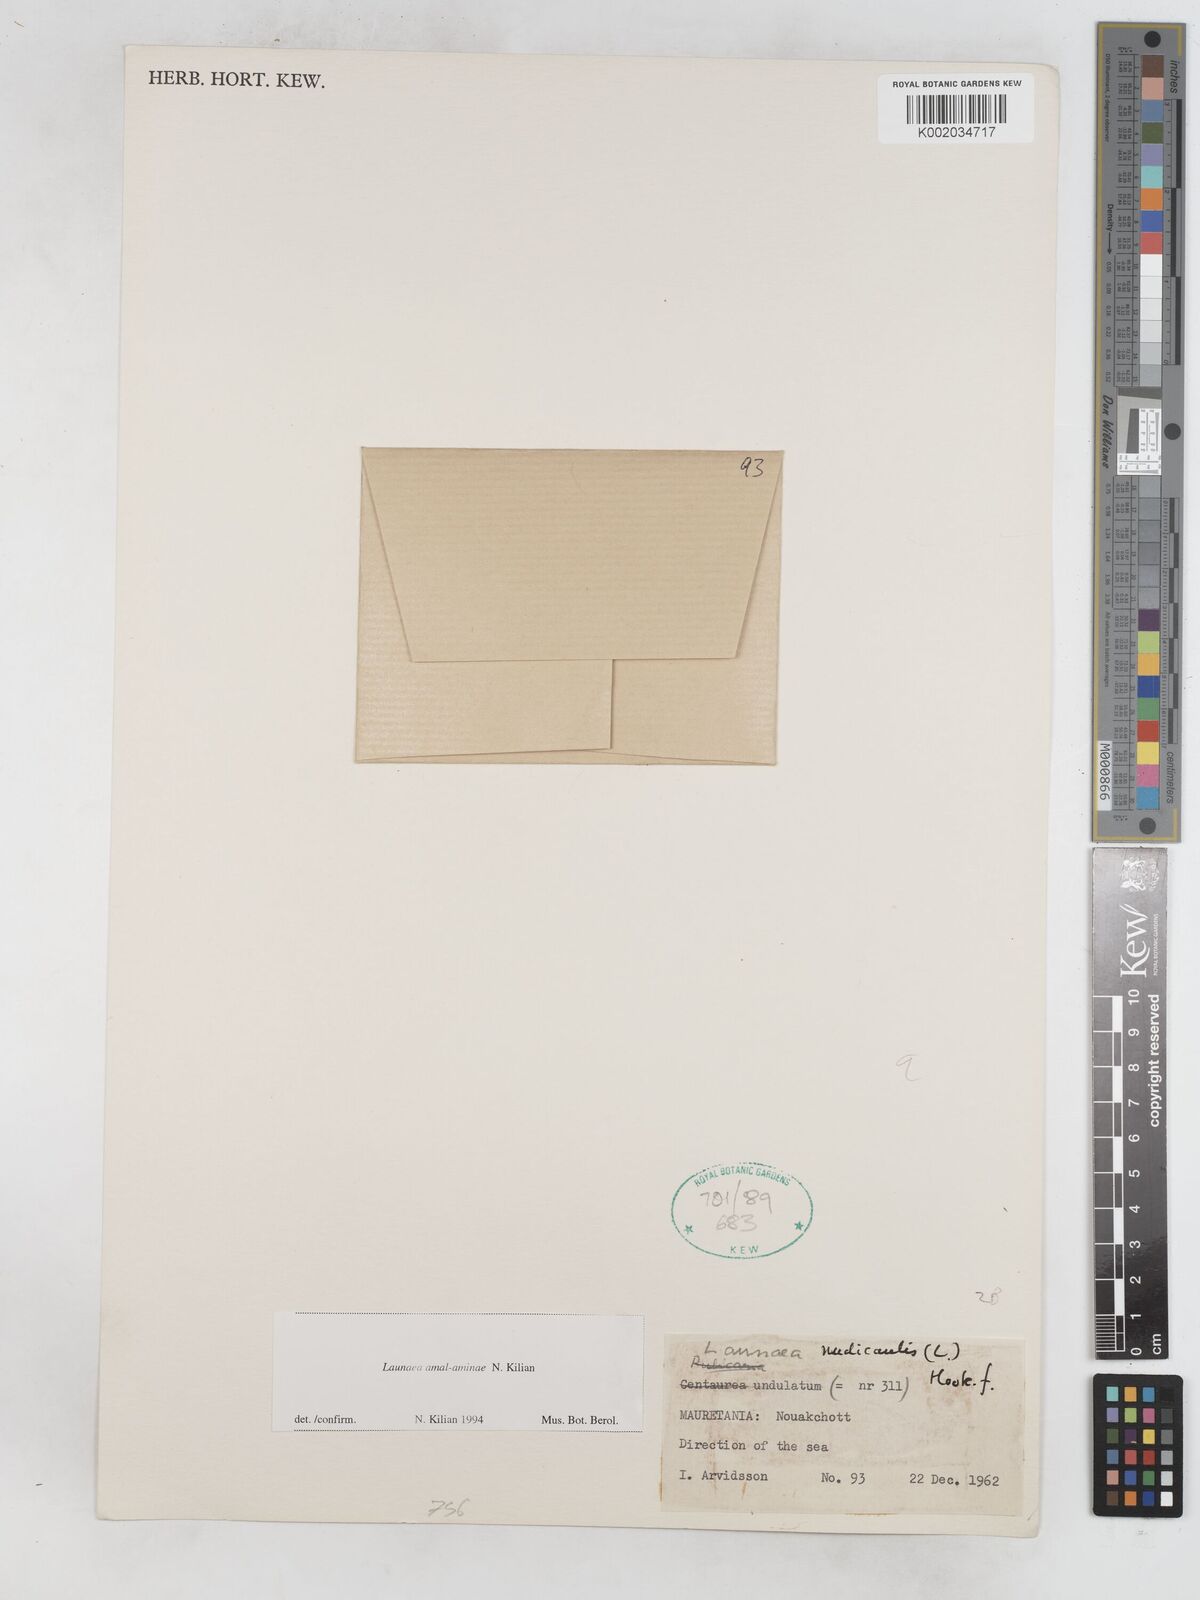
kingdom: Plantae
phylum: Tracheophyta
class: Magnoliopsida
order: Asterales
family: Asteraceae
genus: Launaea
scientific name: Launaea amal-aminiae
